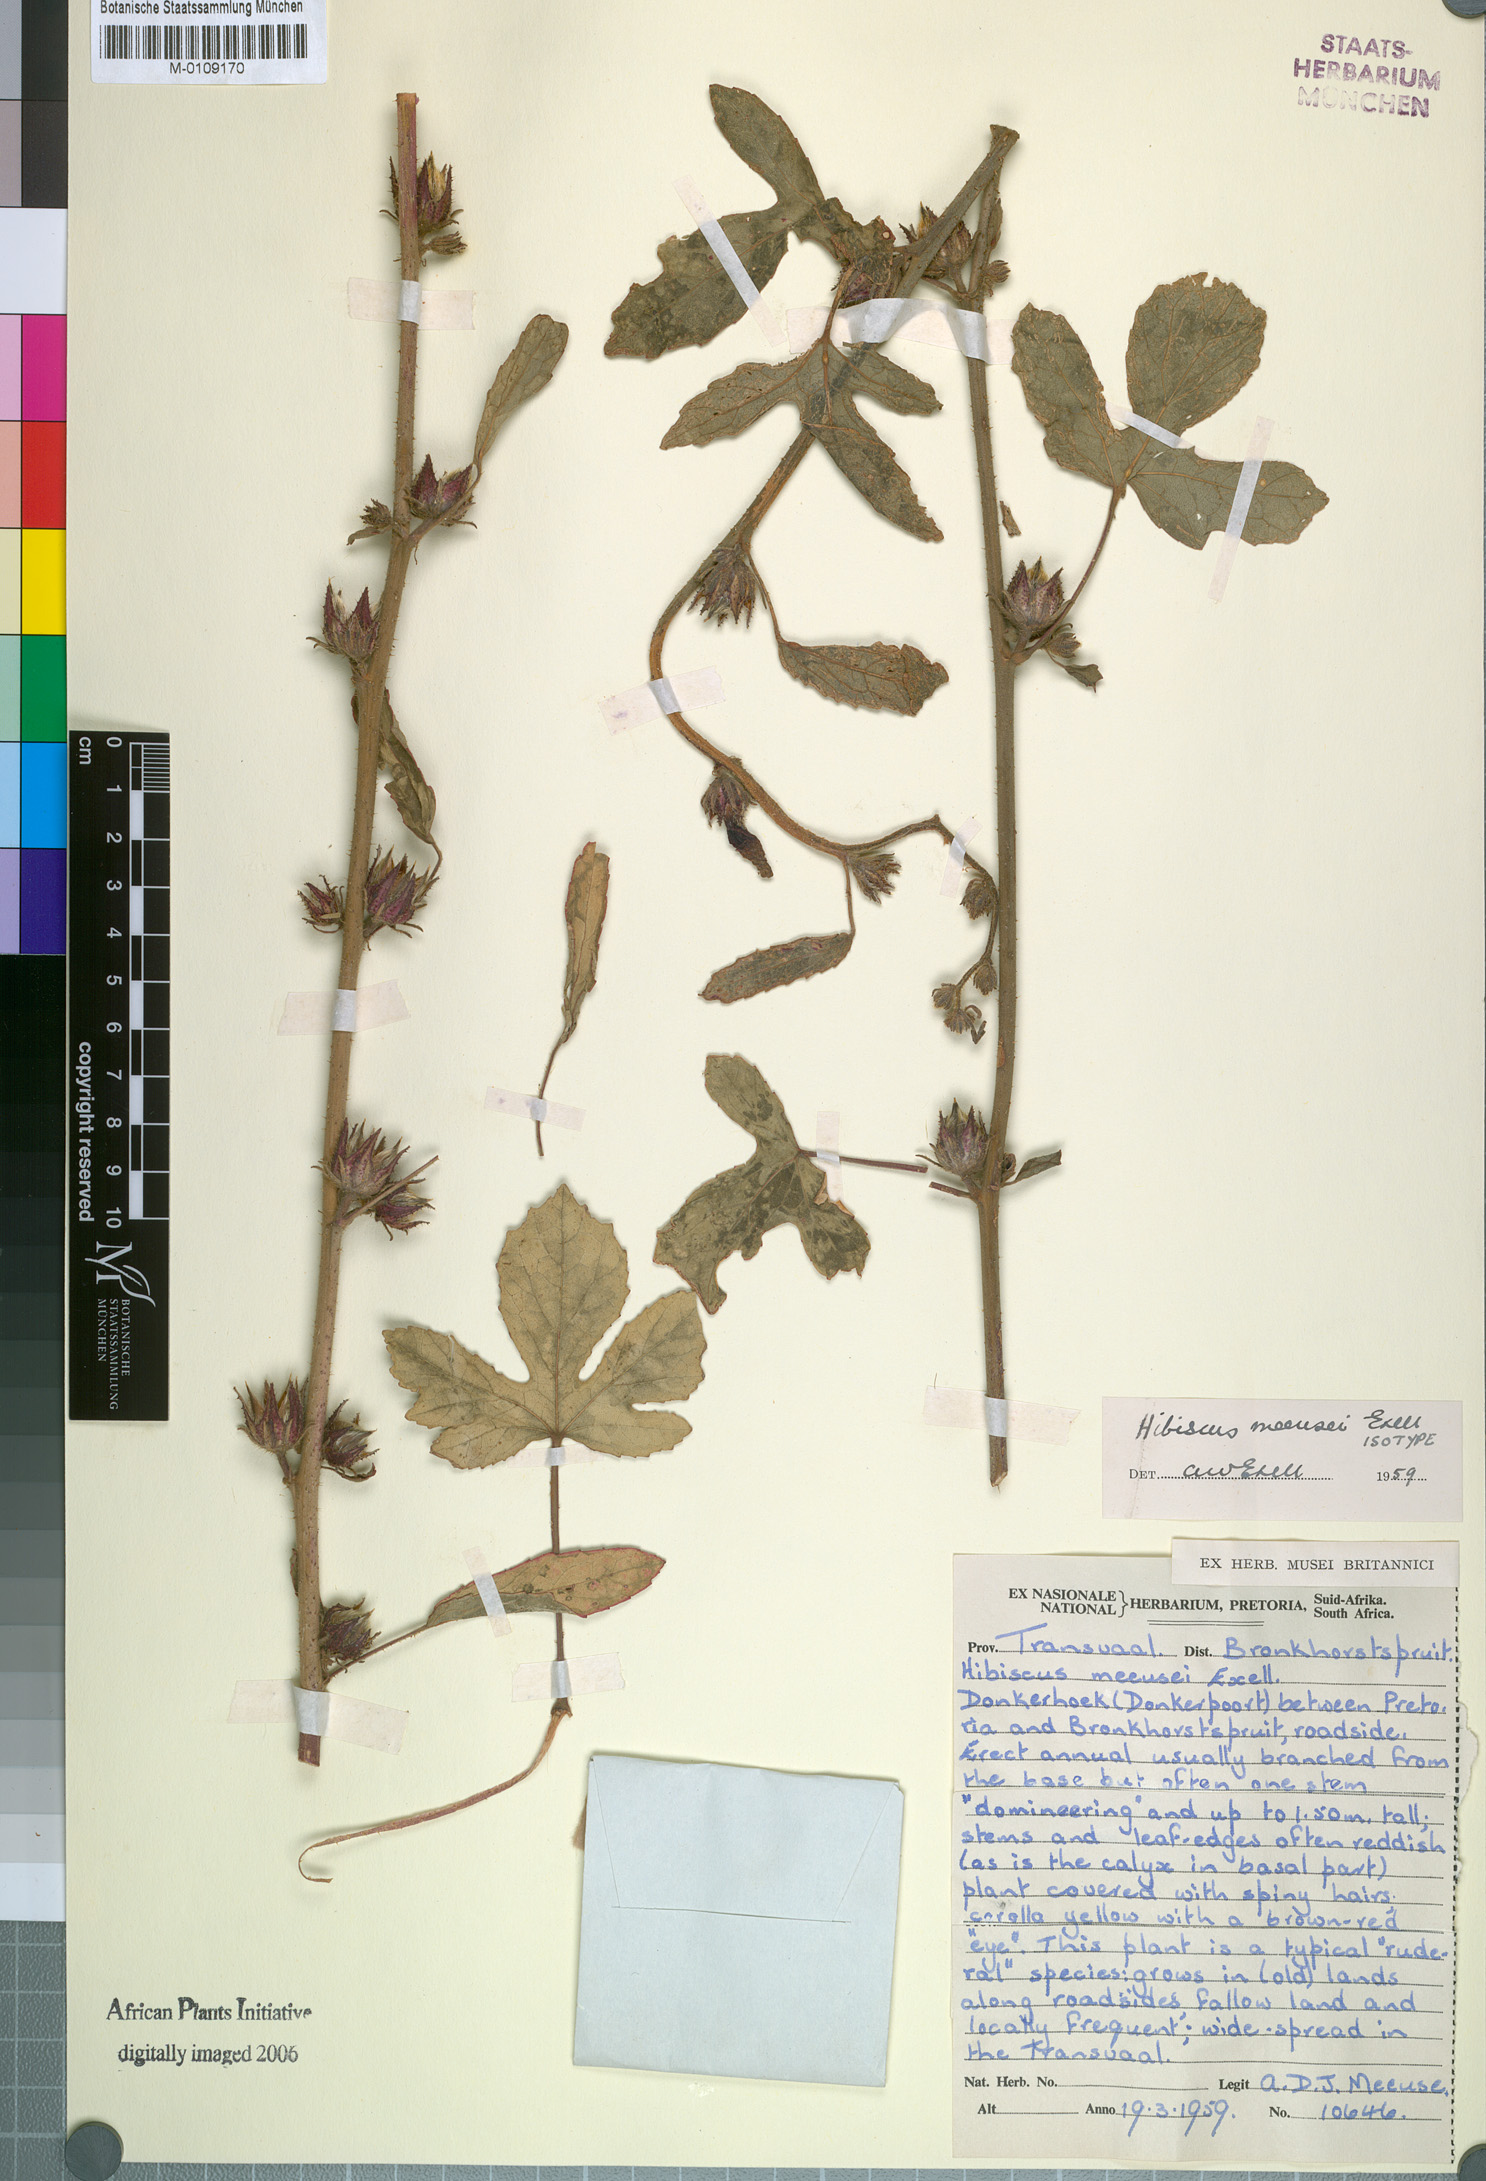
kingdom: Plantae
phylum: Tracheophyta
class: Magnoliopsida
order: Malvales
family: Malvaceae
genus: Hibiscus
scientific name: Hibiscus nigricaulis
